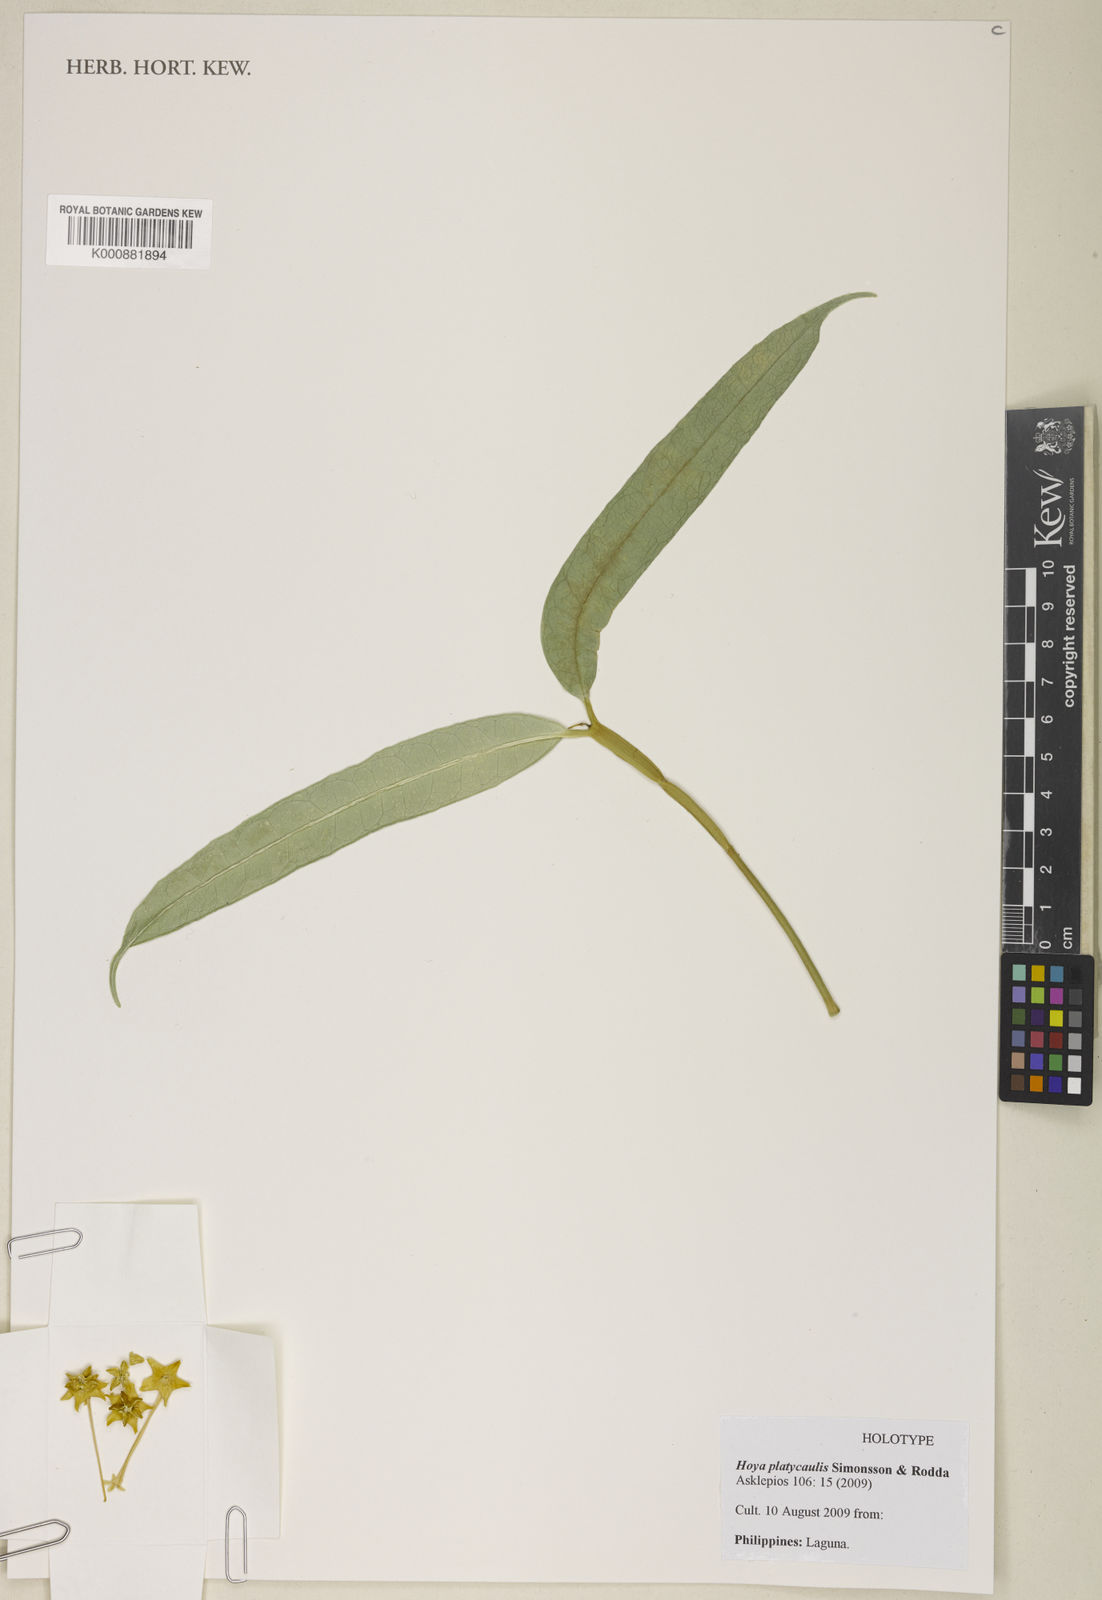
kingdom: Plantae
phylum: Tracheophyta
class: Magnoliopsida
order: Gentianales
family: Apocynaceae
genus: Hoya
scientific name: Hoya platycaulis
